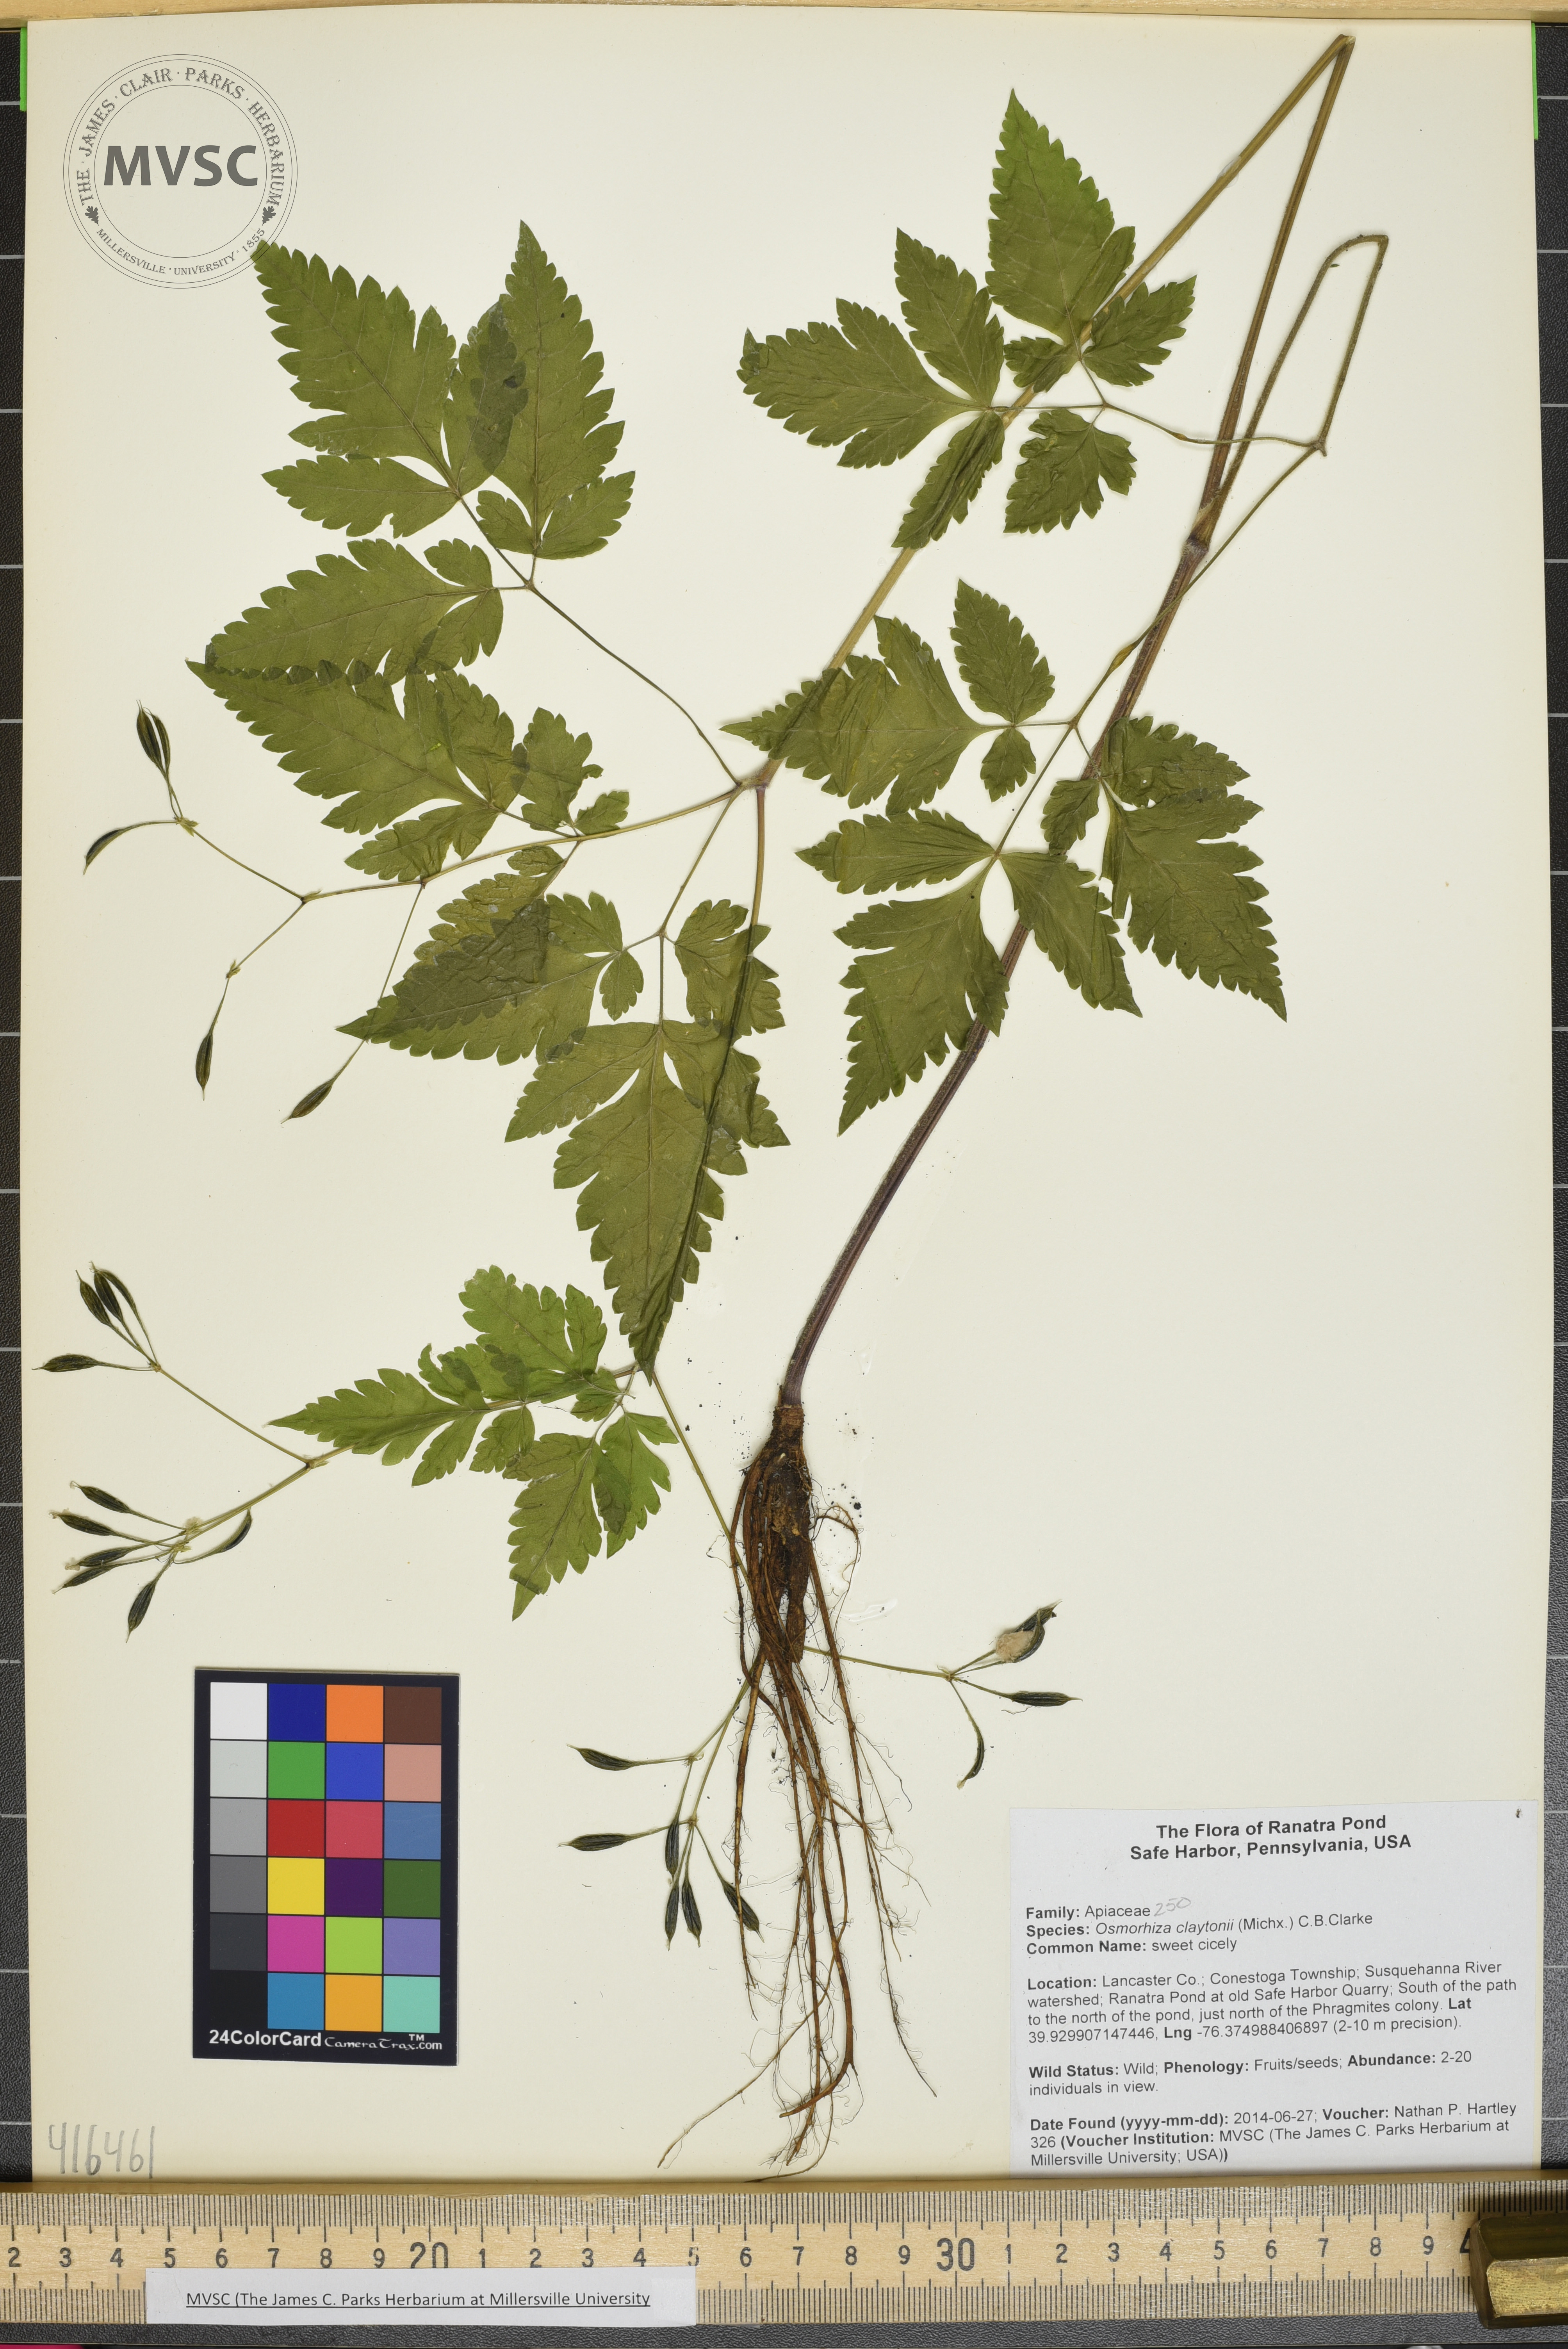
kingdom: Plantae
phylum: Tracheophyta
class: Magnoliopsida
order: Apiales
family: Apiaceae
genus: Osmorhiza
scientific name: Osmorhiza claytonii
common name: sweet Cicely
